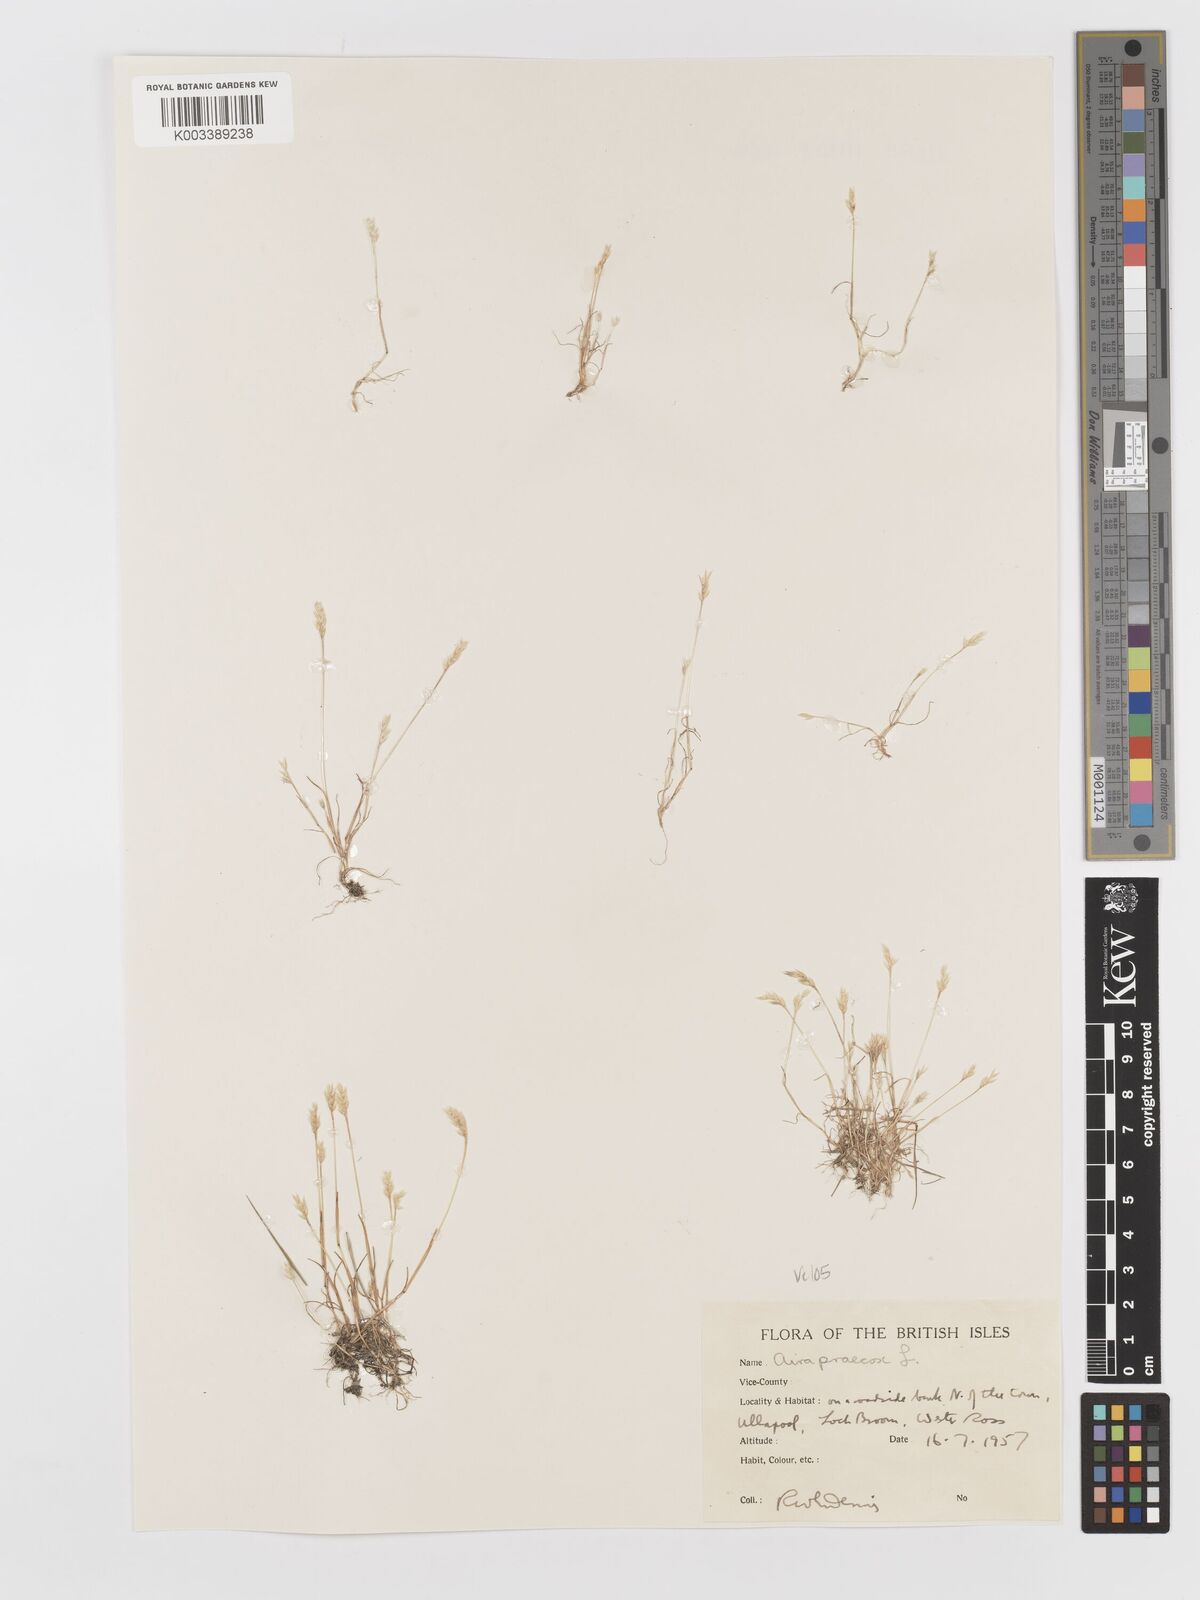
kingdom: Plantae
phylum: Tracheophyta
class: Liliopsida
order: Poales
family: Poaceae
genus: Aira
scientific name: Aira praecox
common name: Early hair-grass
